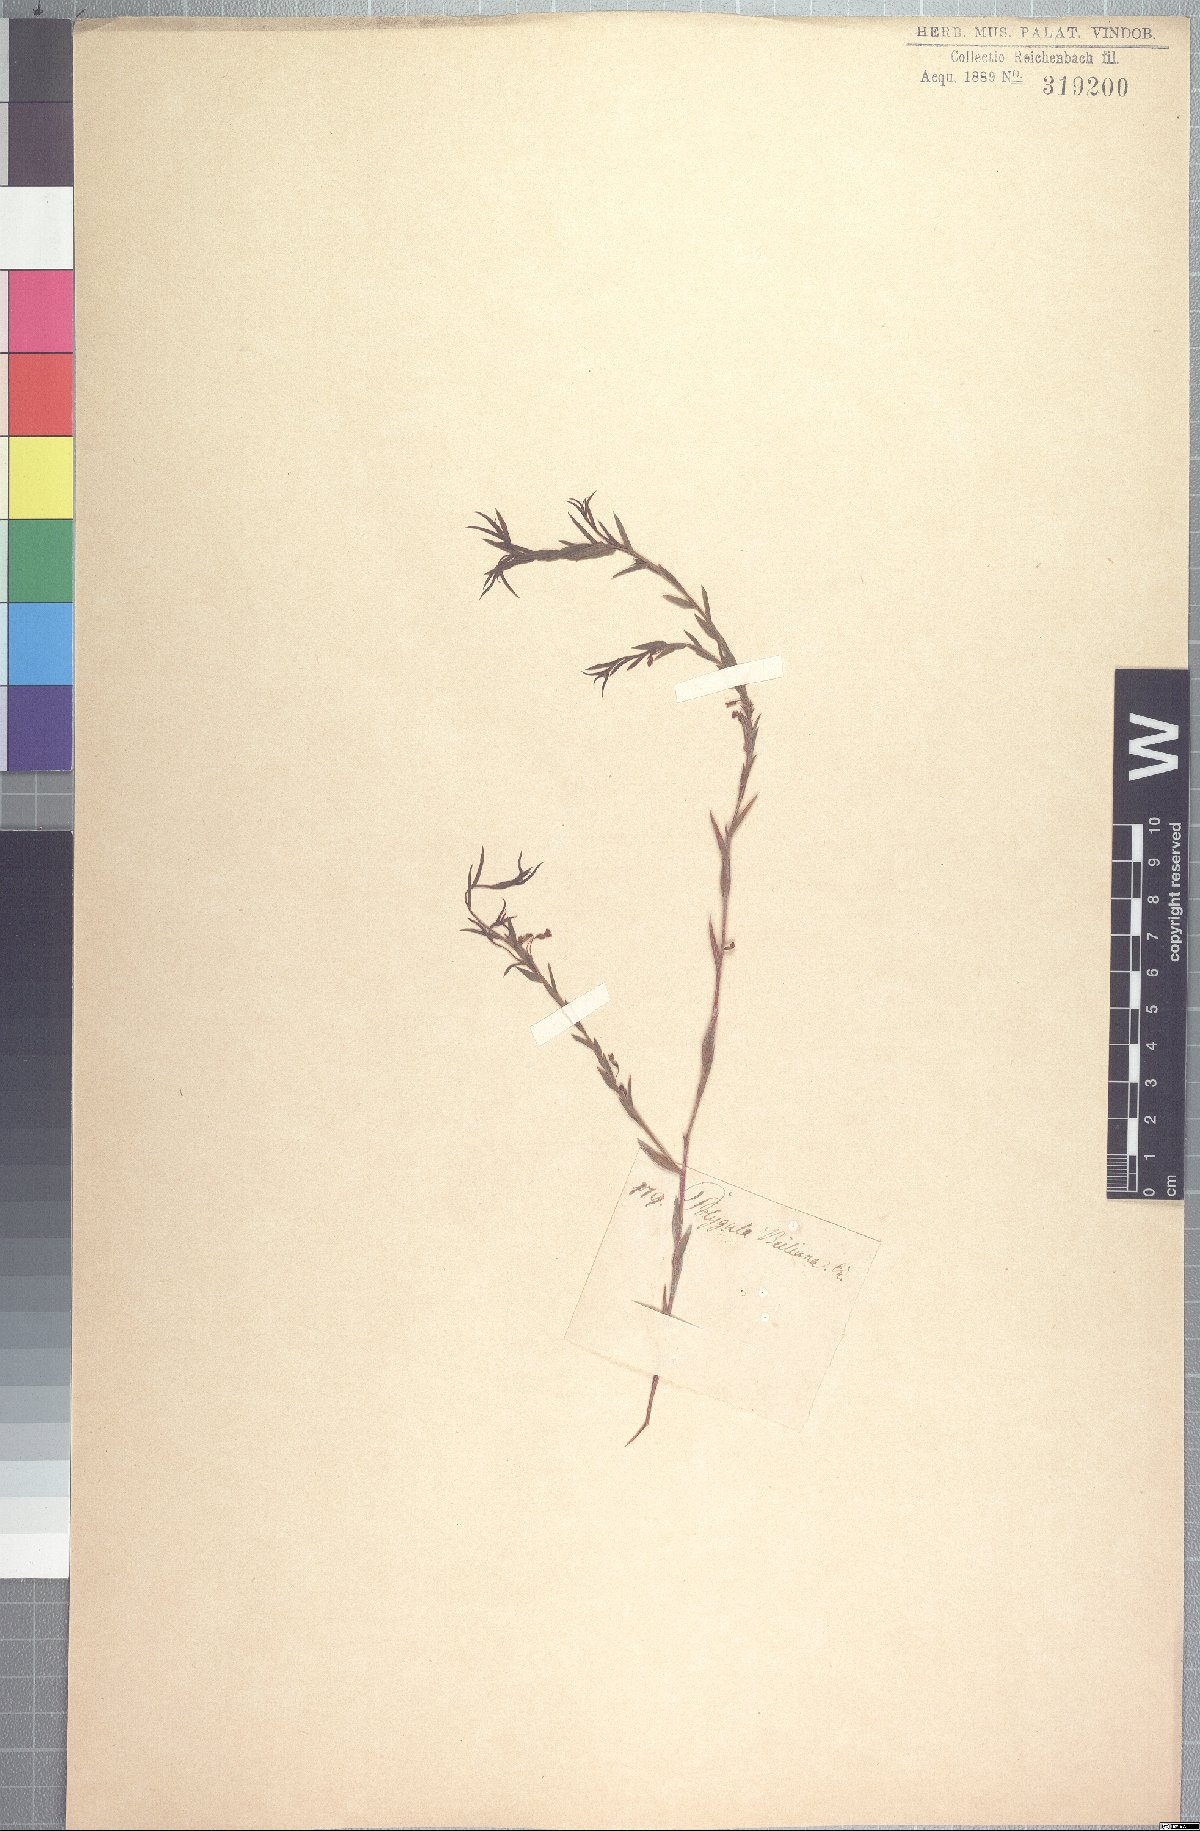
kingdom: Plantae
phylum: Tracheophyta
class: Magnoliopsida
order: Fabales
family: Polygalaceae
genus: Muraltia
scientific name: Muraltia muraltioides
